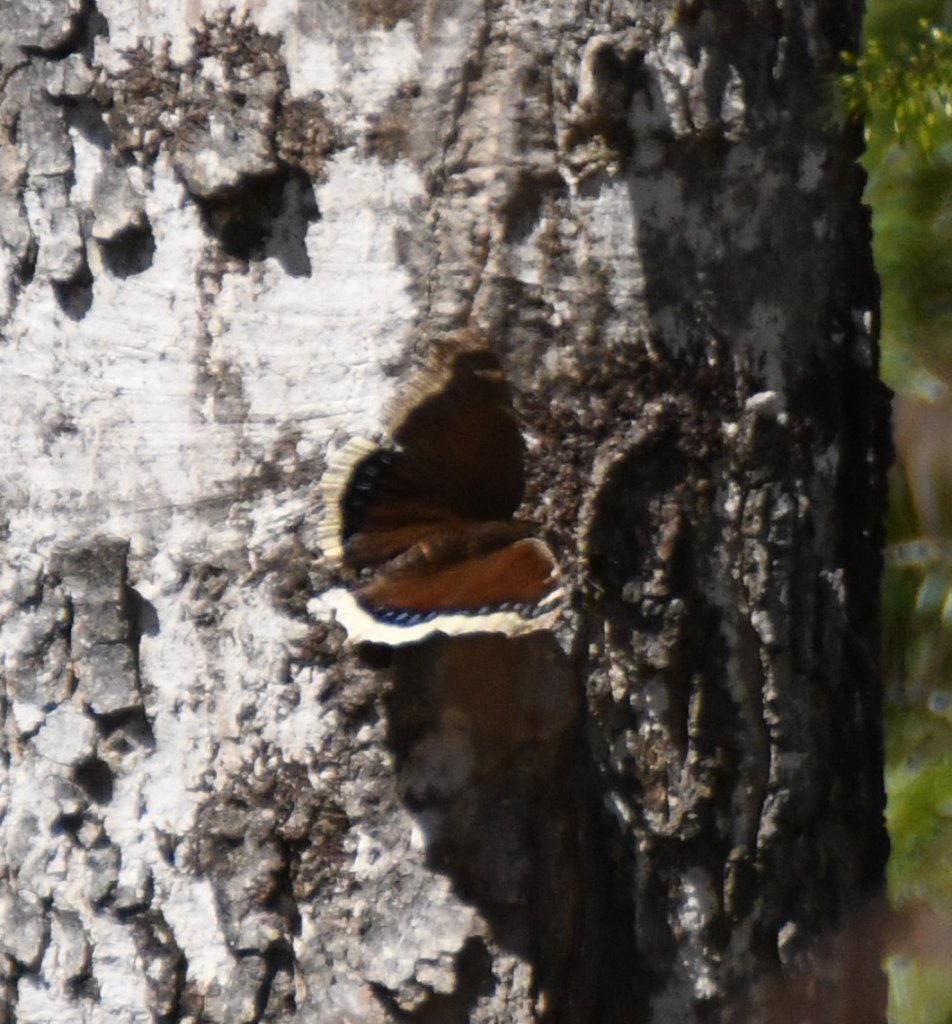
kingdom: Animalia
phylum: Arthropoda
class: Insecta
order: Lepidoptera
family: Nymphalidae
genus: Nymphalis
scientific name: Nymphalis antiopa
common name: Mourning Cloak
